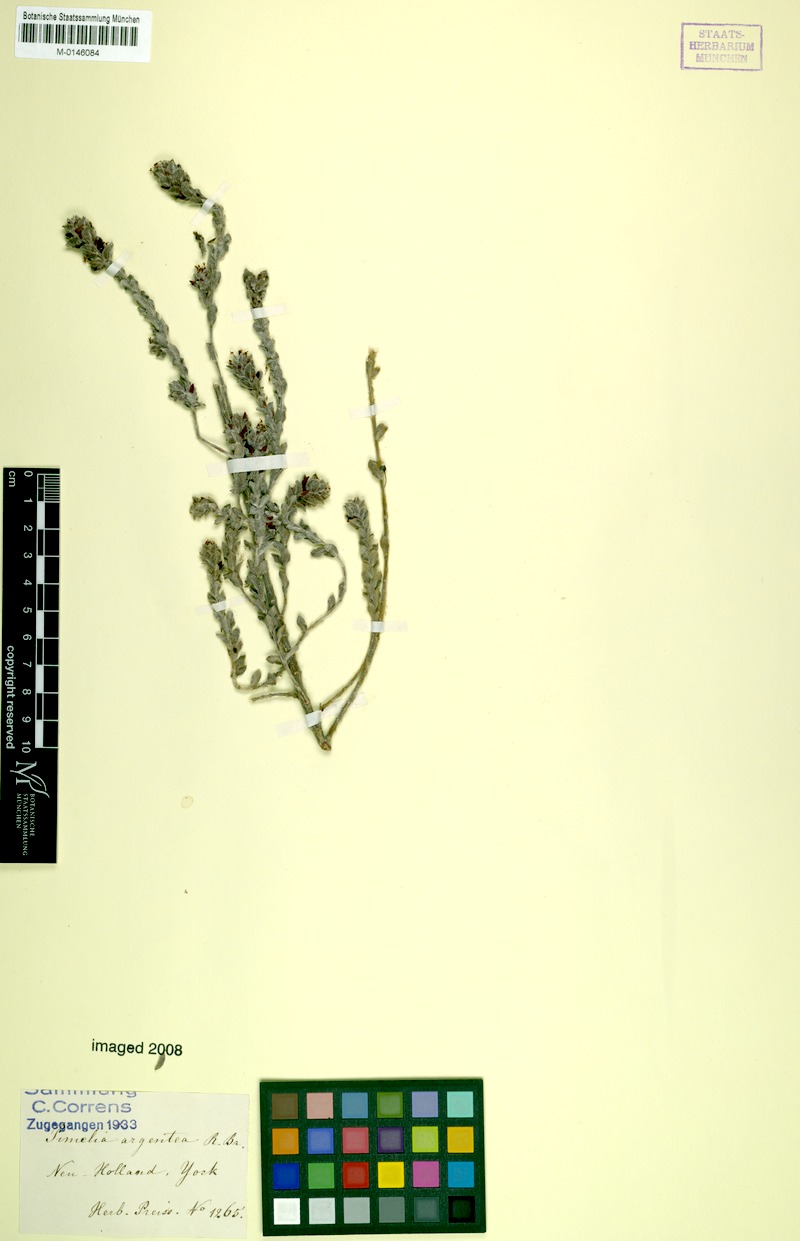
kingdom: Plantae
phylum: Tracheophyta
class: Magnoliopsida
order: Malvales
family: Thymelaeaceae
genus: Pimelea
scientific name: Pimelea argentea
